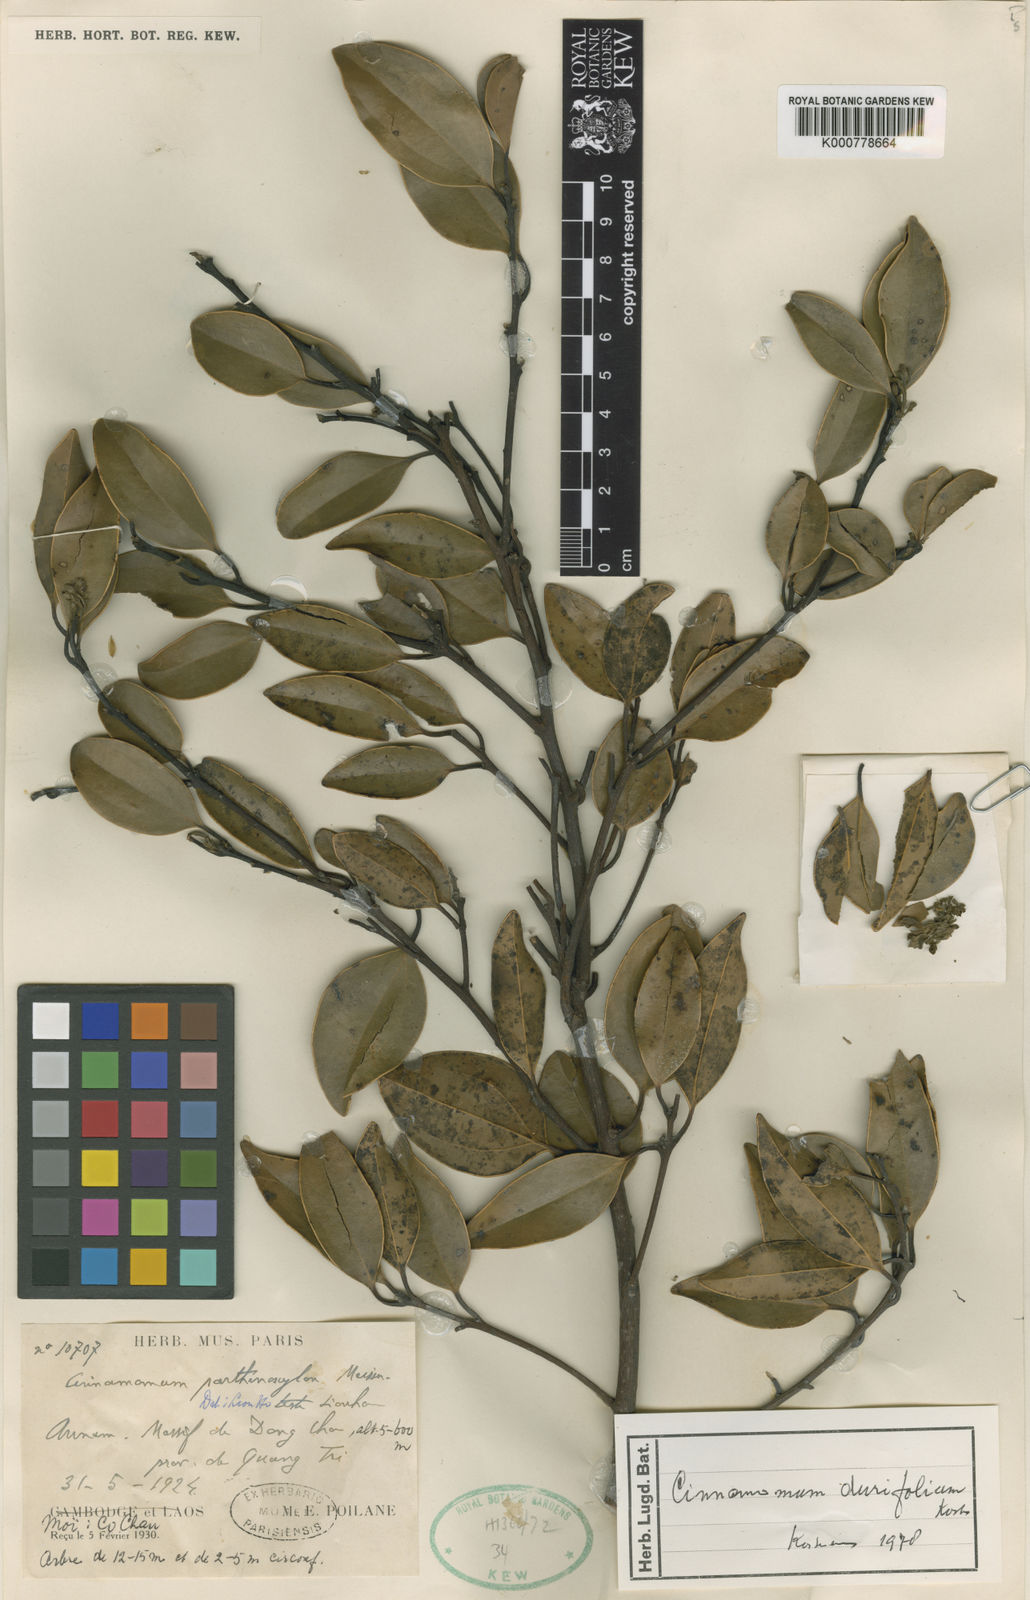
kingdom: Plantae
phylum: Tracheophyta
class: Magnoliopsida
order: Laurales
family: Lauraceae
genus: Cinnamomum
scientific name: Cinnamomum
